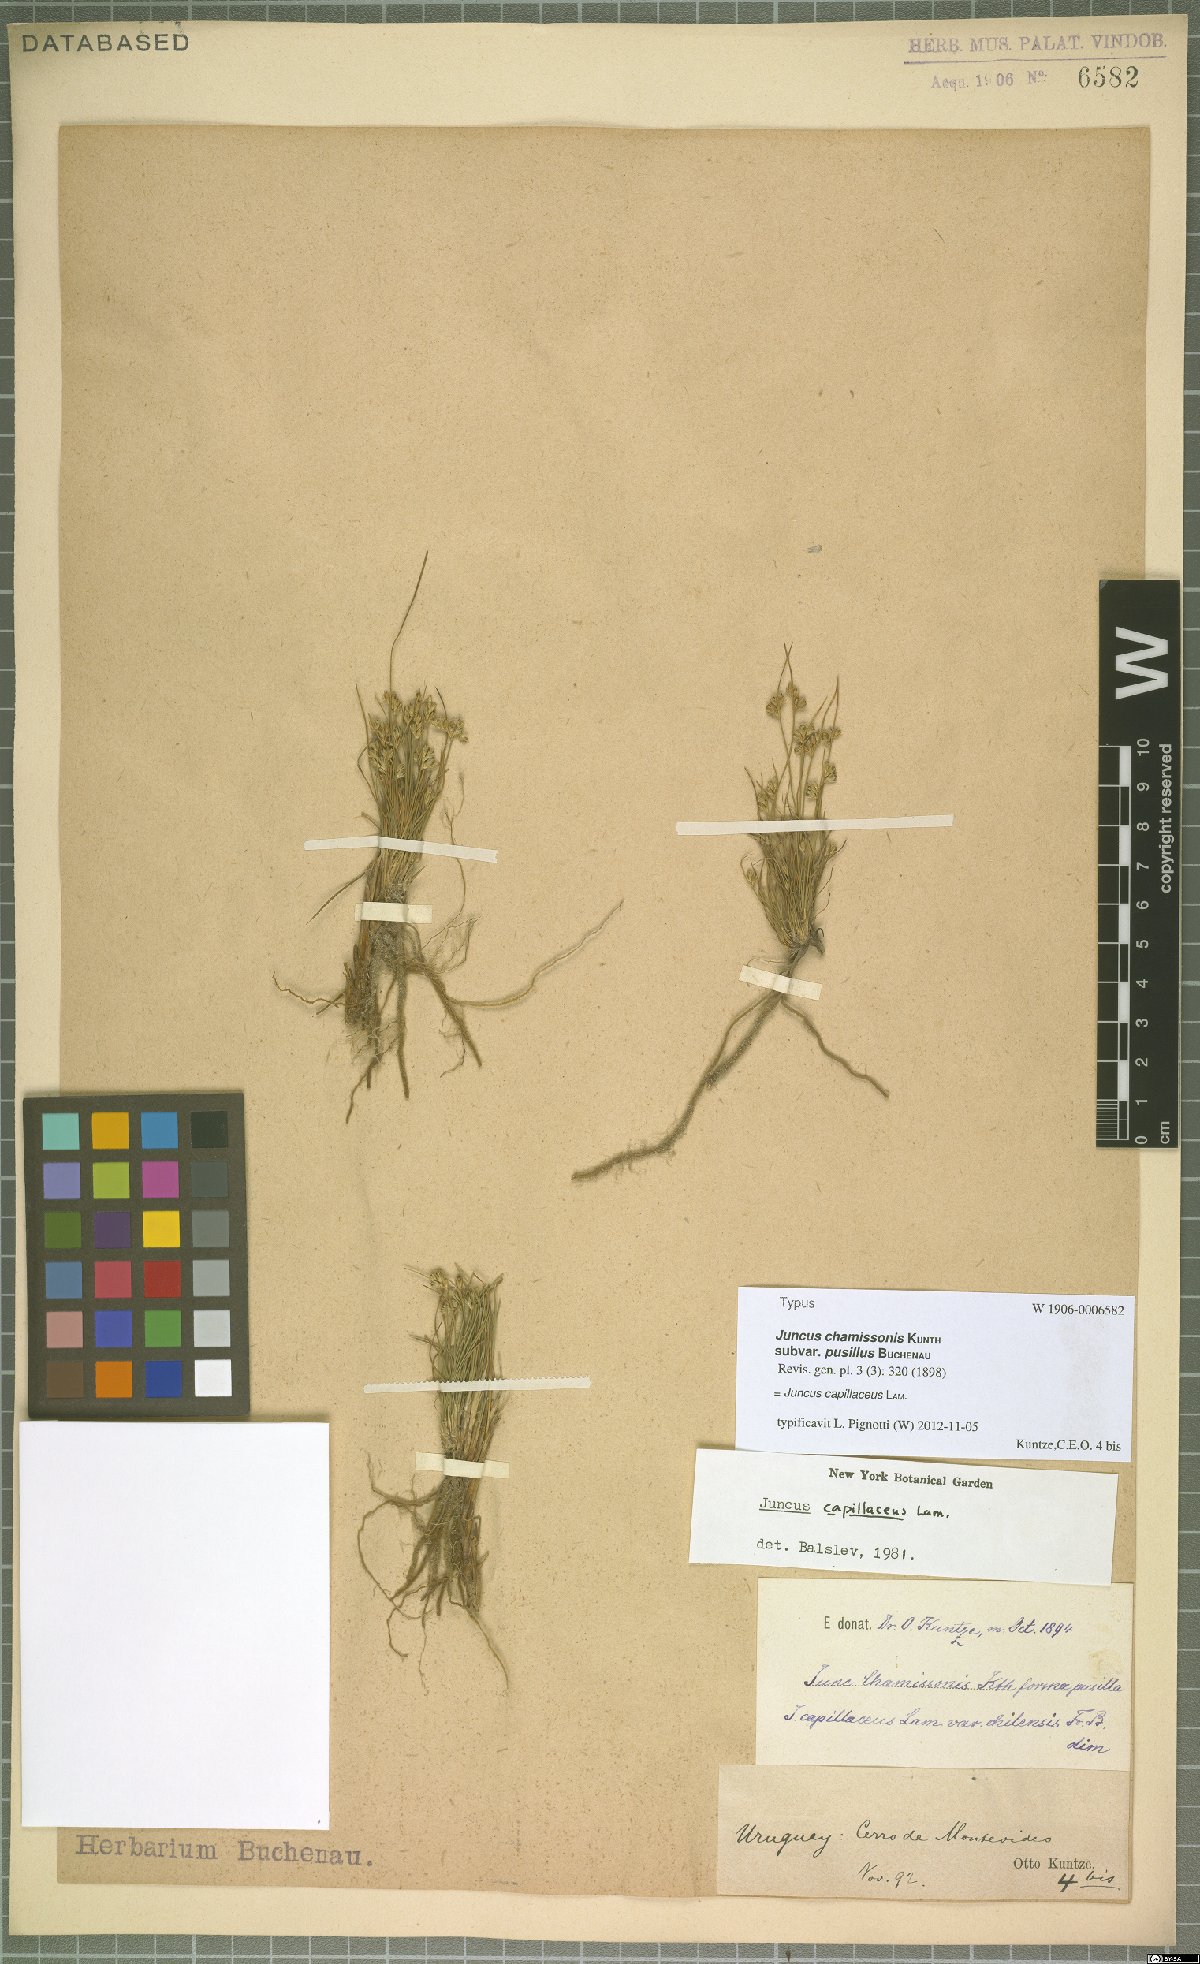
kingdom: Plantae
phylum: Tracheophyta
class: Liliopsida
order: Poales
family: Juncaceae
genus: Juncus
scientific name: Juncus capillaceus
